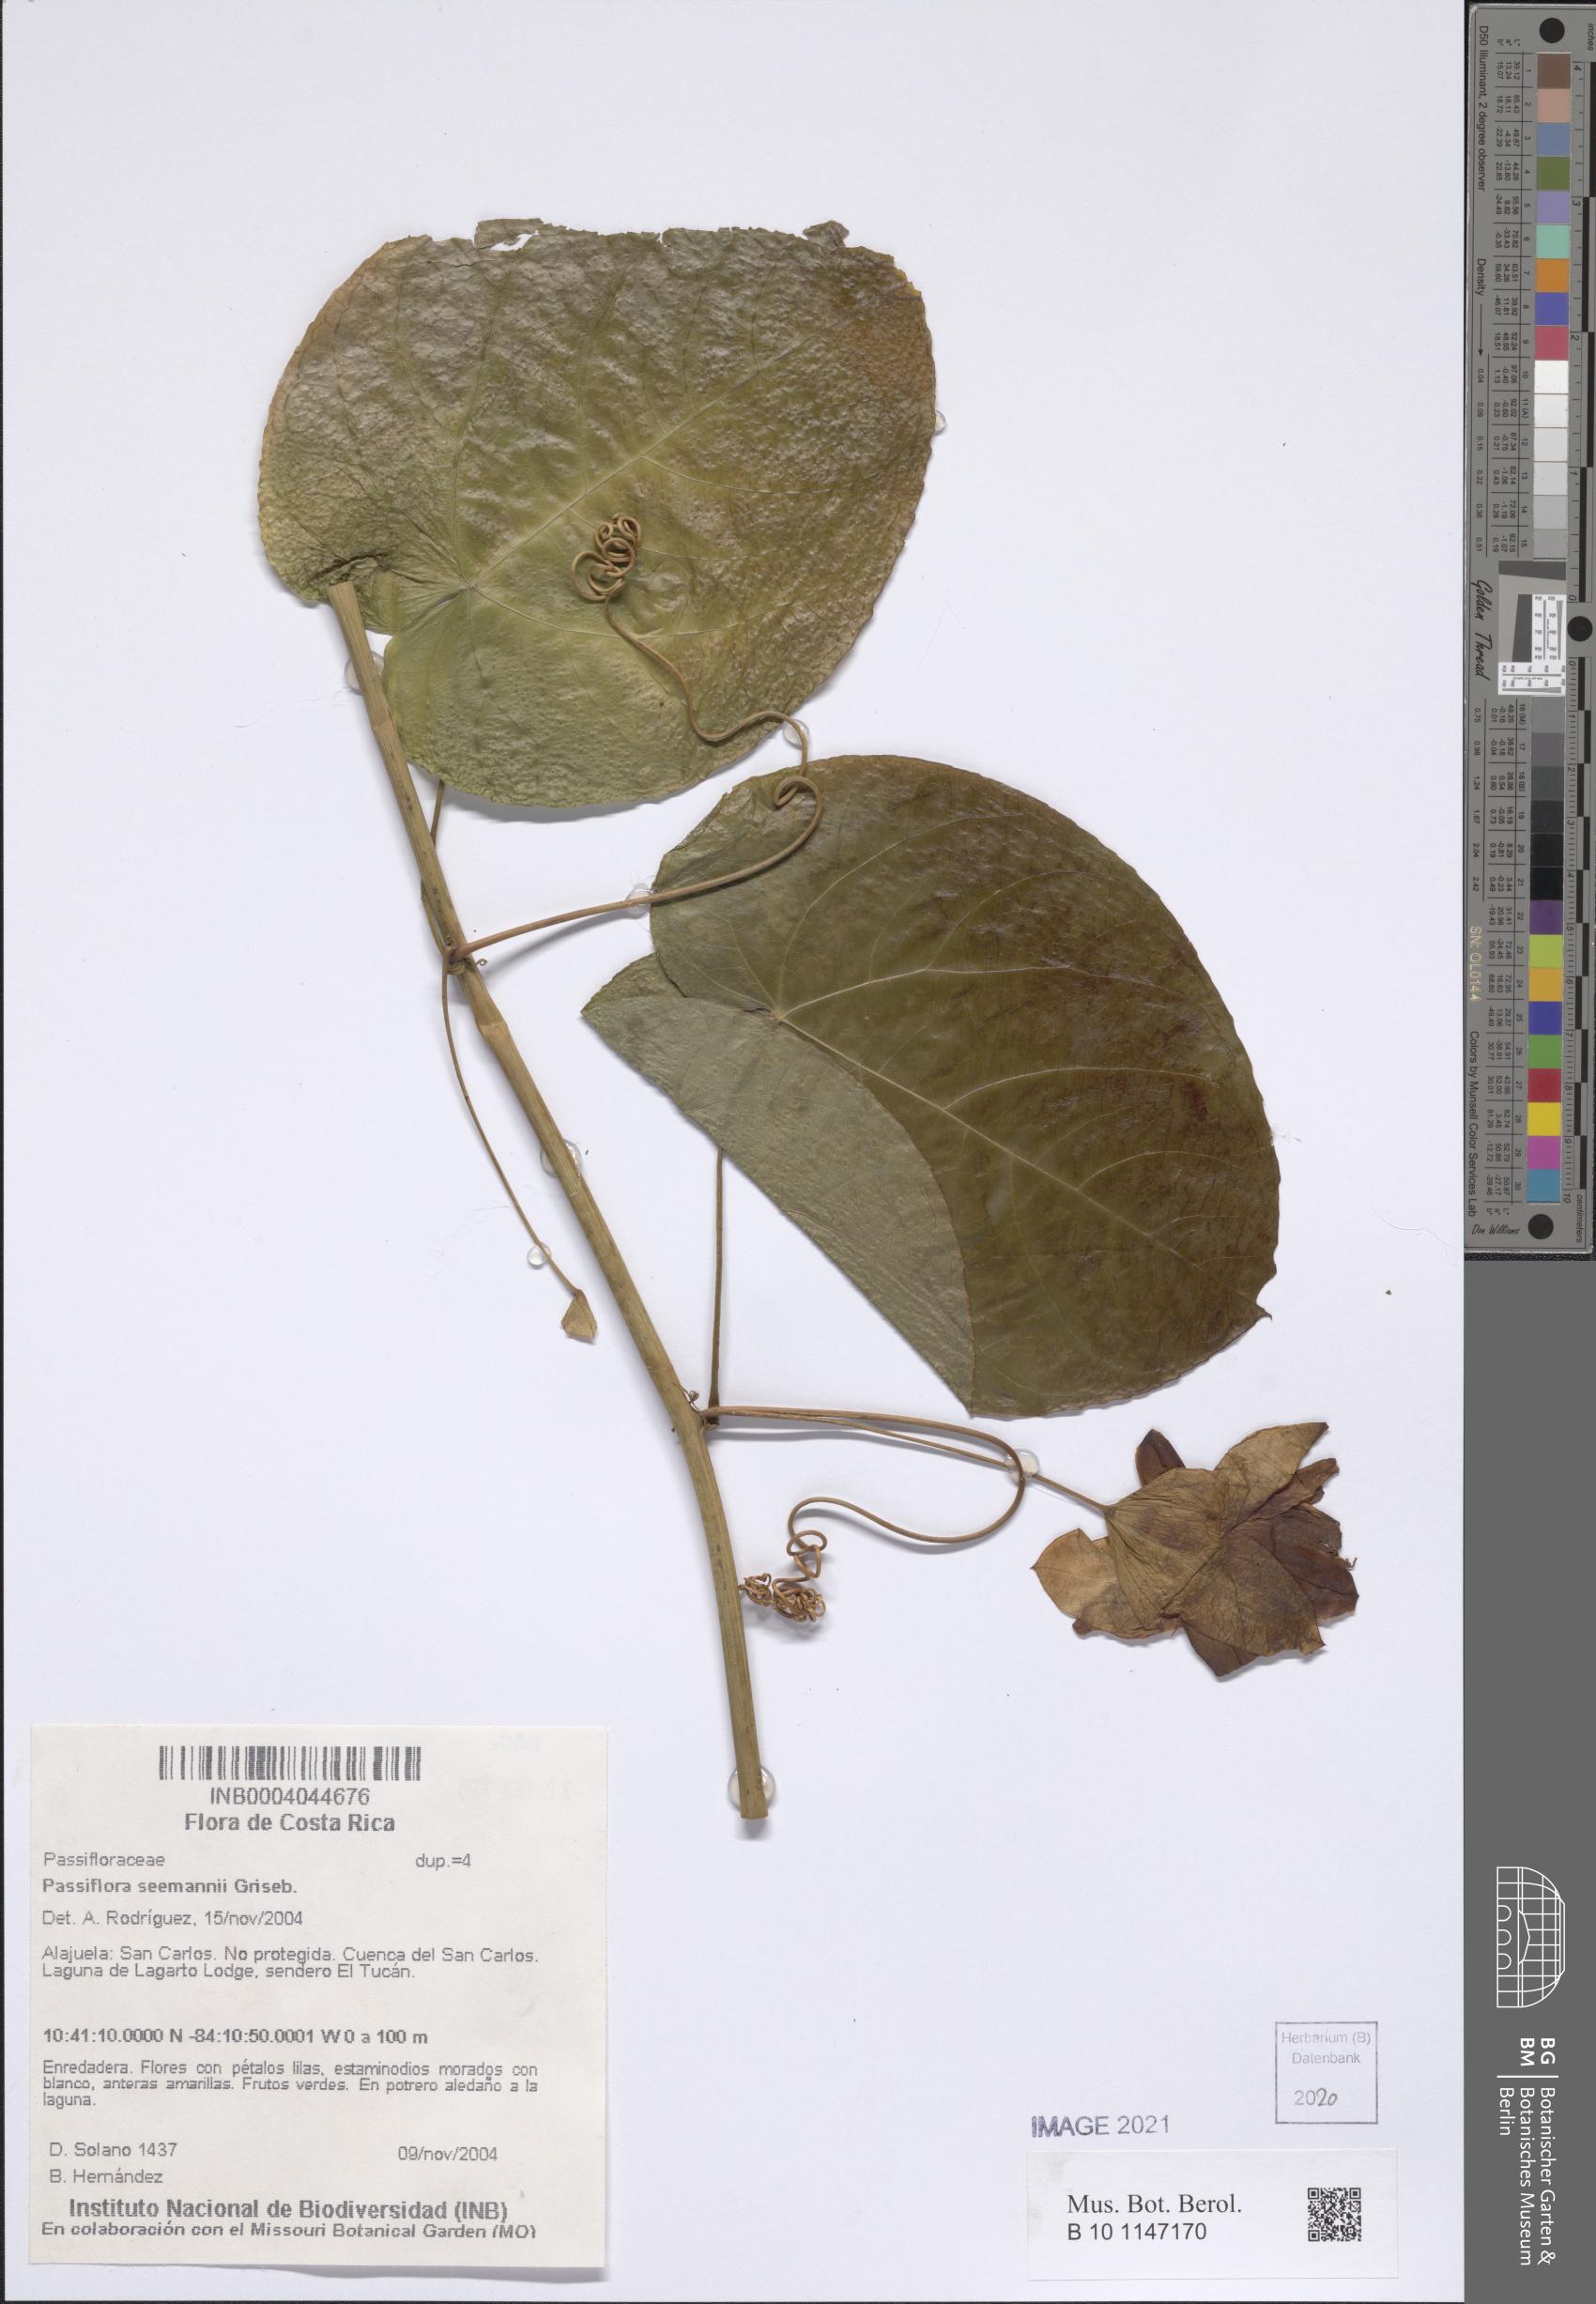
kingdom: Plantae
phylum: Tracheophyta
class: Magnoliopsida
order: Malpighiales
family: Passifloraceae
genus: Passiflora
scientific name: Passiflora seemannii
